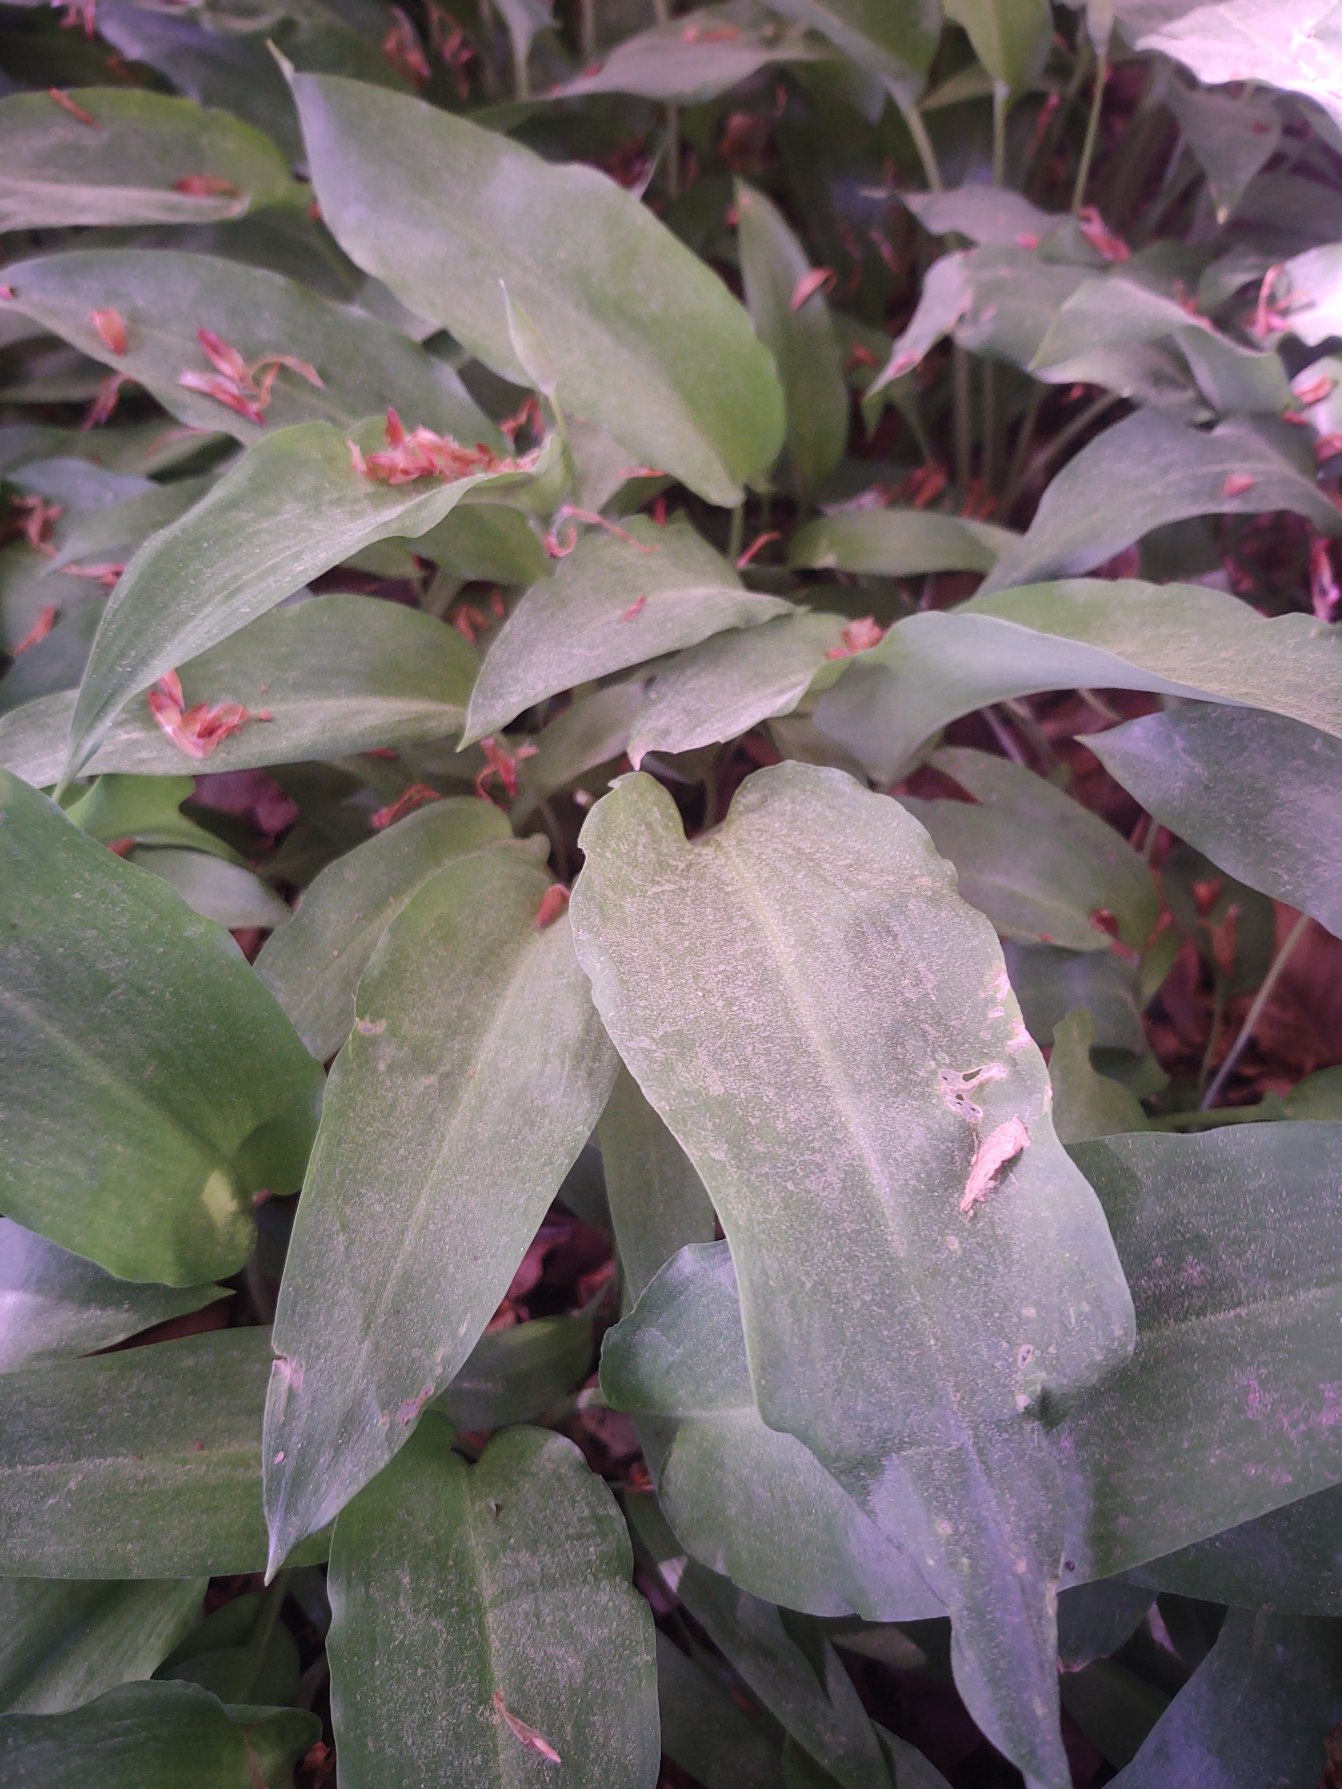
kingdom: Plantae
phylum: Tracheophyta
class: Liliopsida
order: Asparagales
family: Amaryllidaceae
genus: Allium
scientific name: Allium ursinum
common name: Rams-løg
